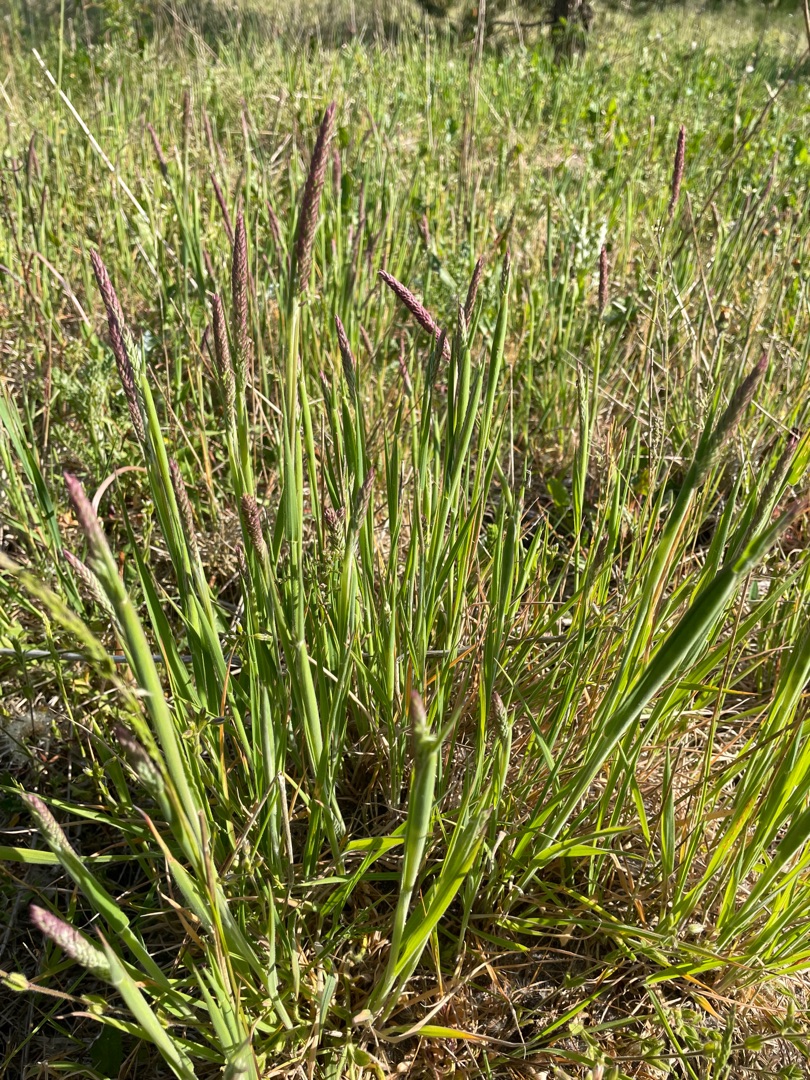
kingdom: Plantae
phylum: Tracheophyta
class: Liliopsida
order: Poales
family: Poaceae
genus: Holcus
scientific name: Holcus lanatus
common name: Fløjlsgræs
